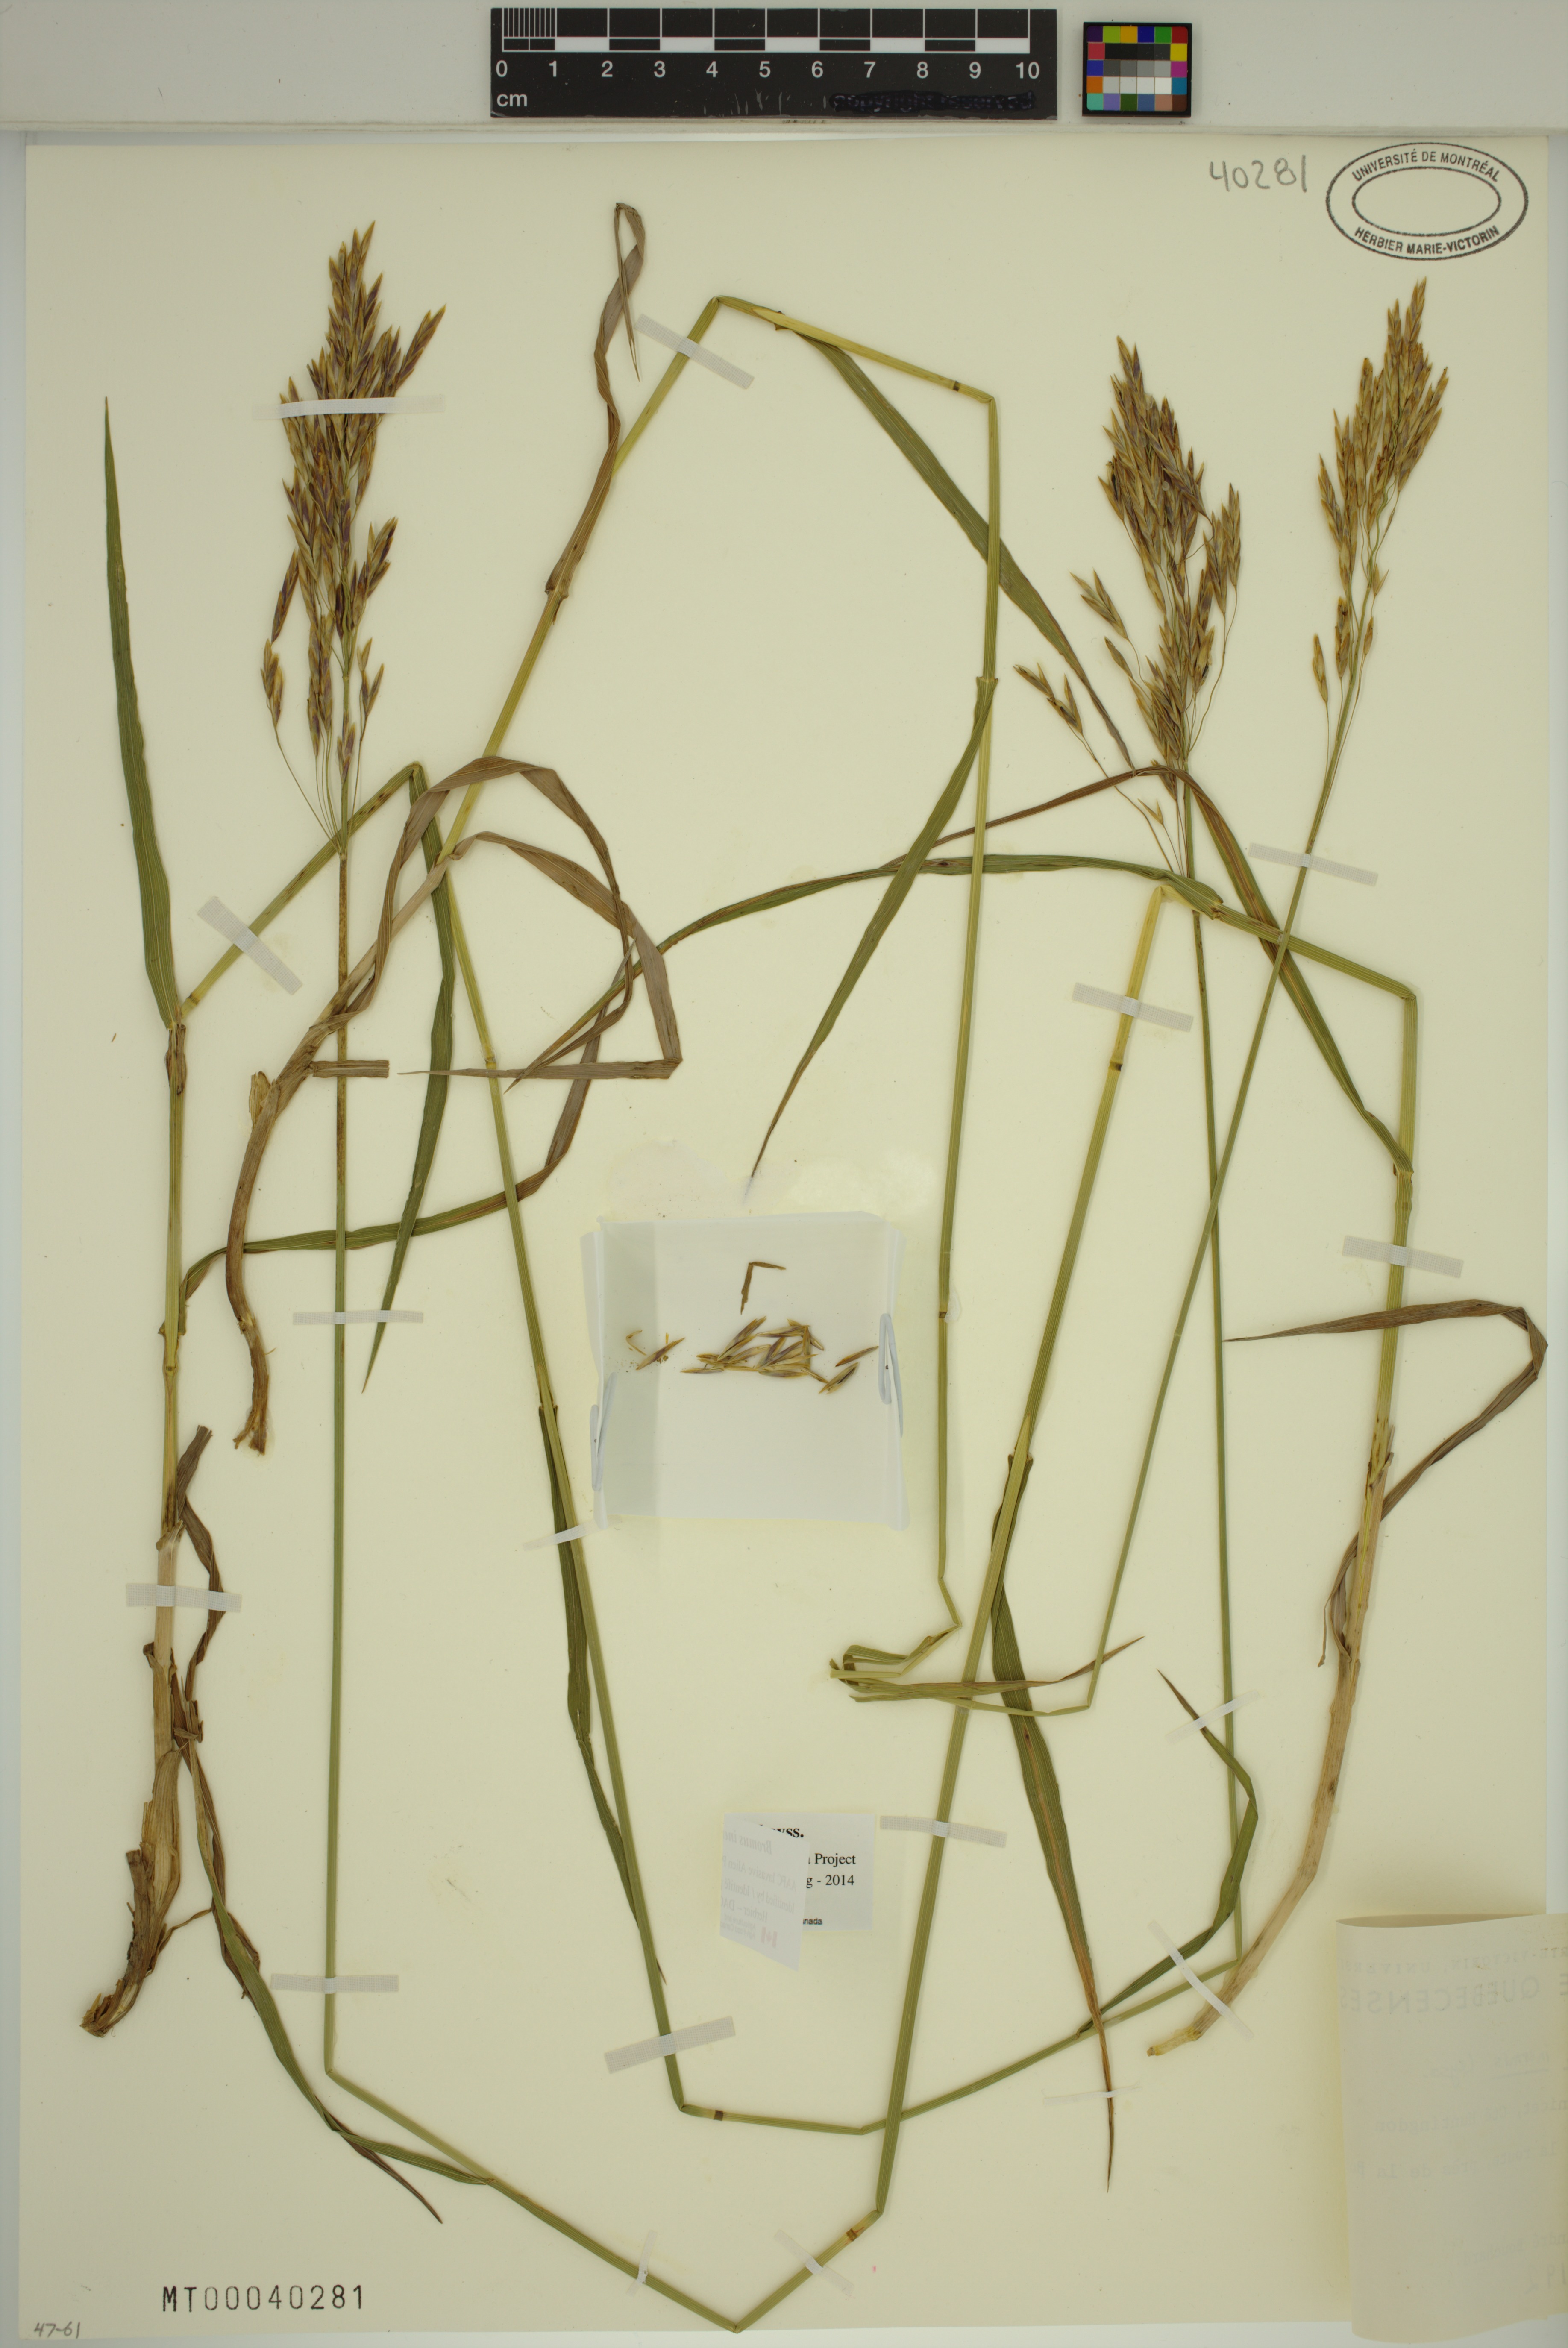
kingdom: Plantae
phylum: Tracheophyta
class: Liliopsida
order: Poales
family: Poaceae
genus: Bromus
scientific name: Bromus inermis
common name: Smooth brome
